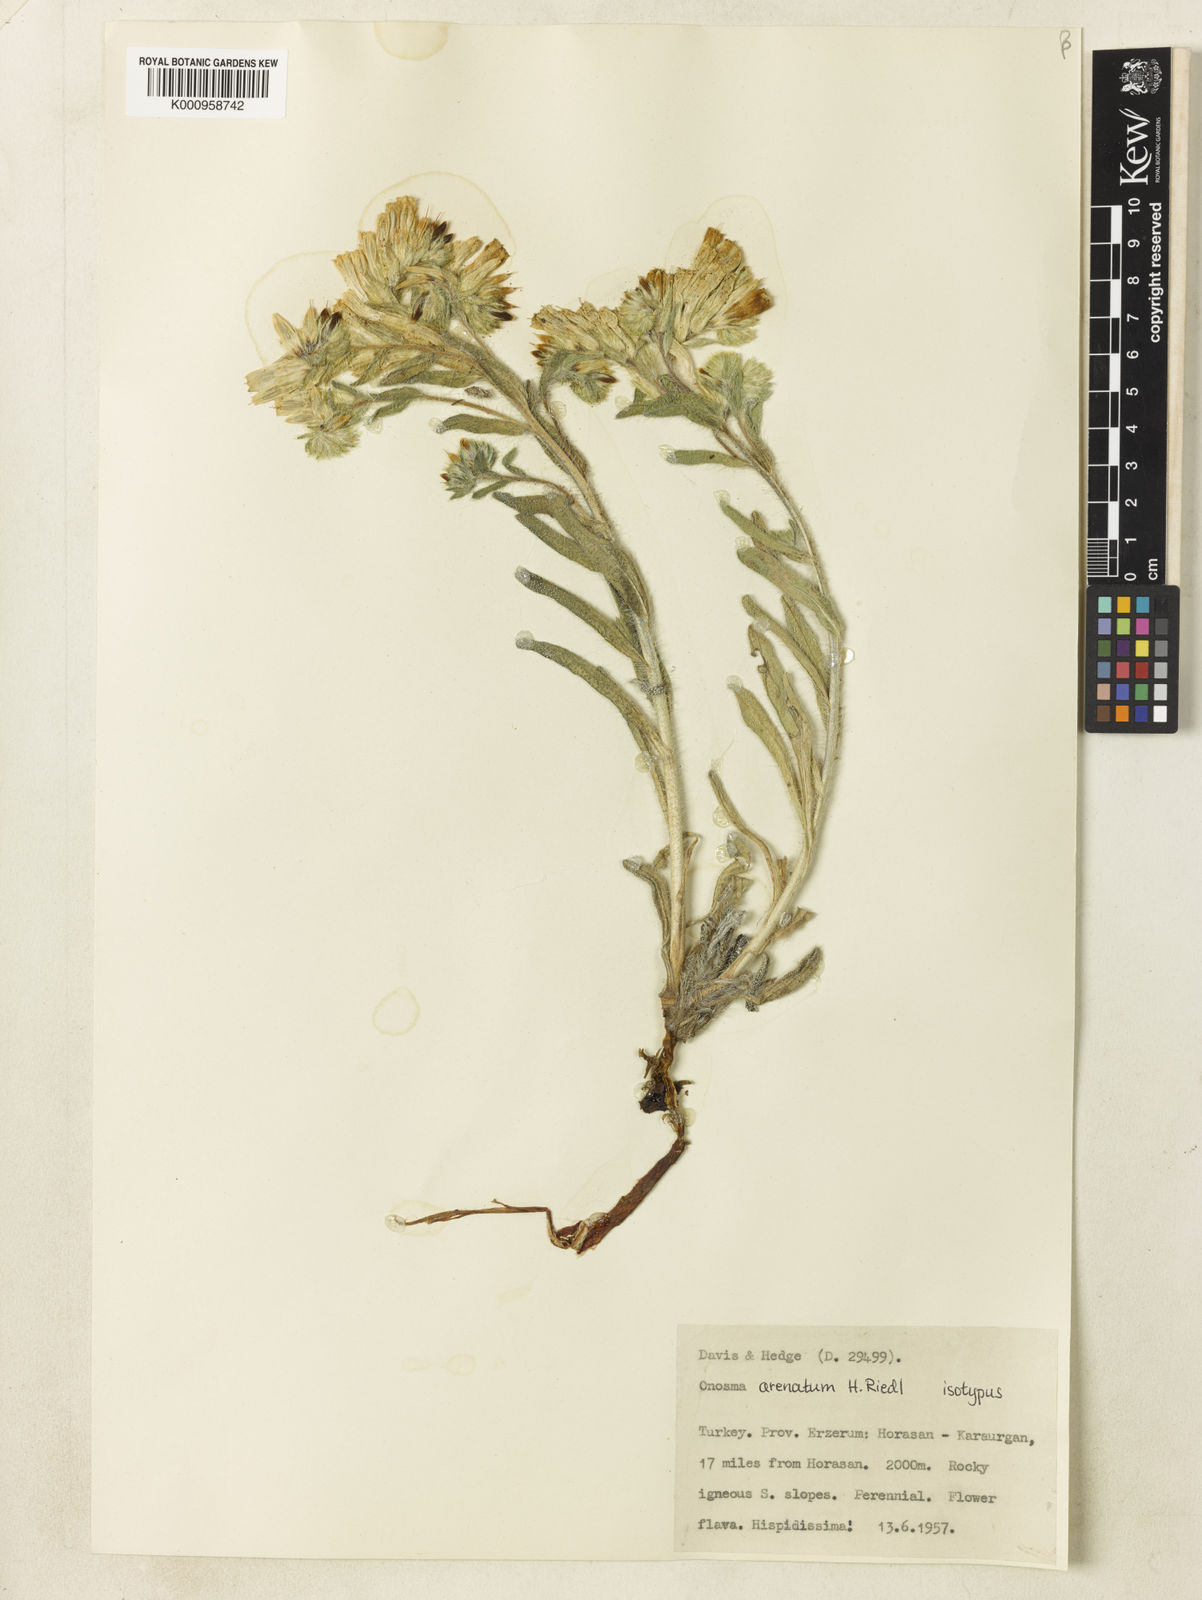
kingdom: Plantae
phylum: Tracheophyta
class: Magnoliopsida
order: Boraginales
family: Boraginaceae
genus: Onosma
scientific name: Onosma
